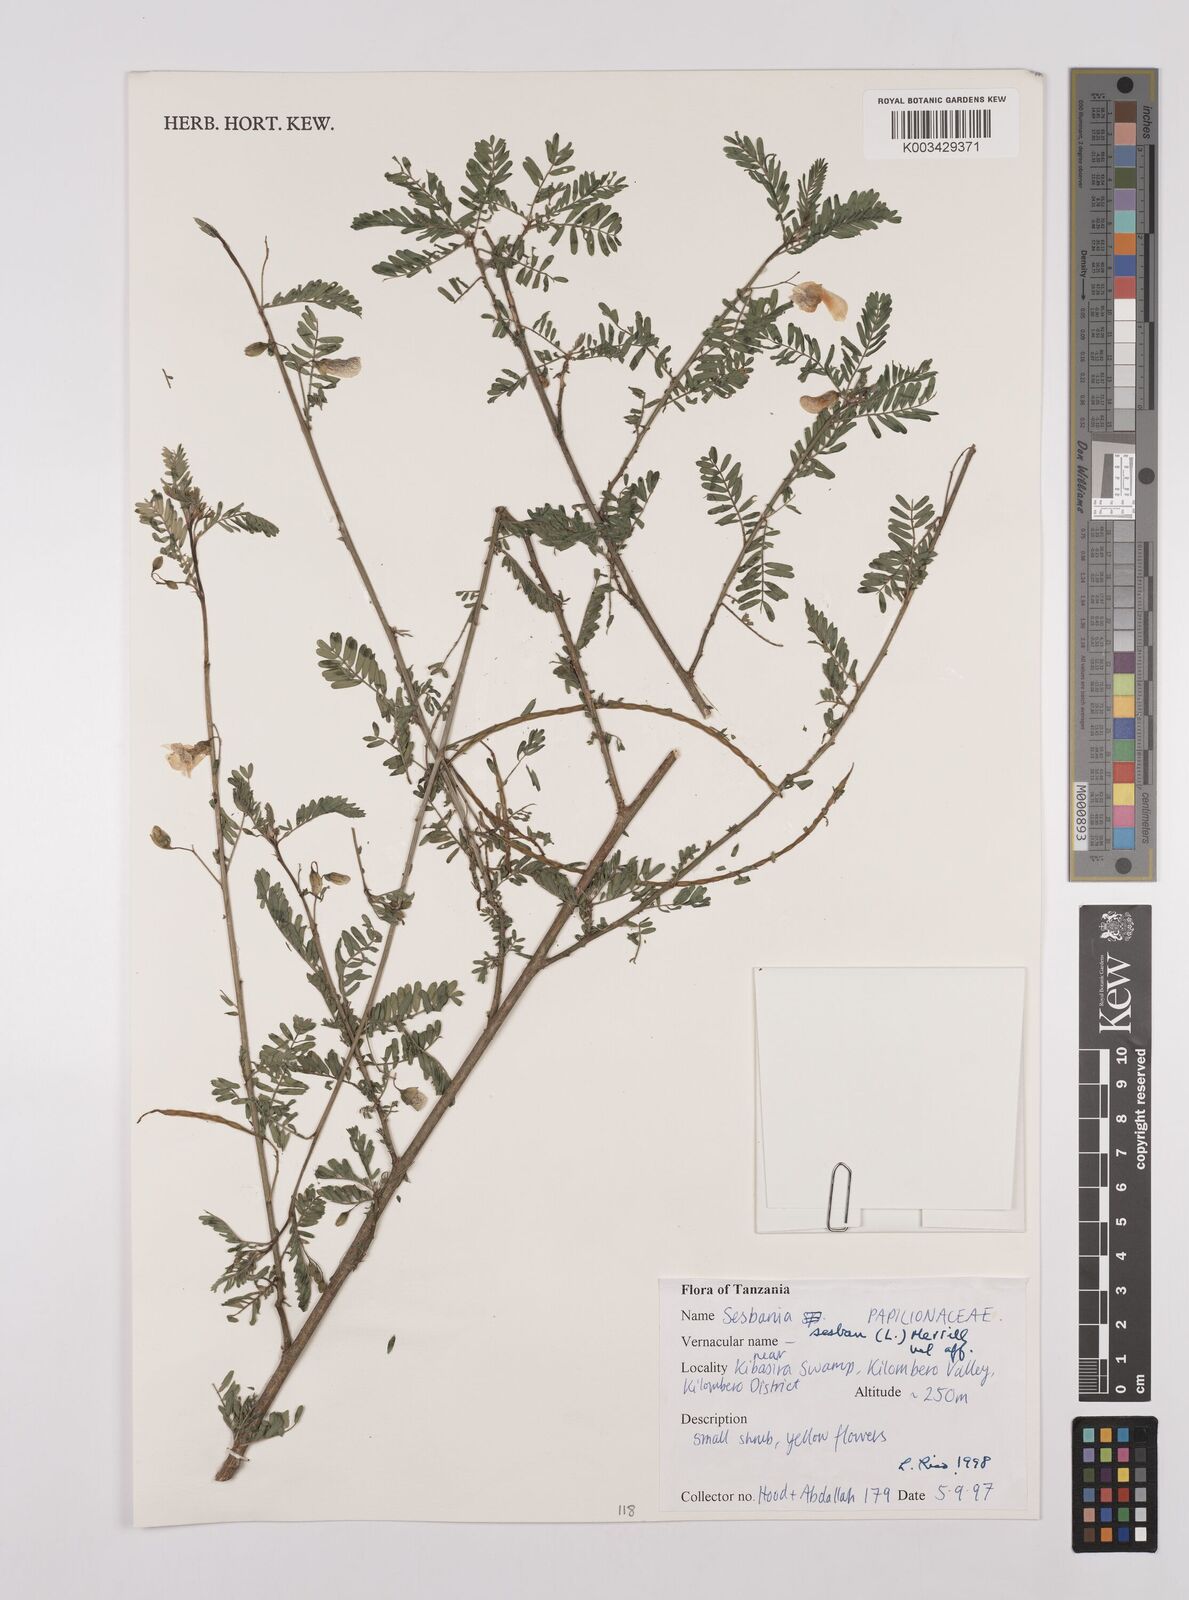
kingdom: Plantae
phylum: Tracheophyta
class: Magnoliopsida
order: Fabales
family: Fabaceae
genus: Sesbania
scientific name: Sesbania sesban
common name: Egyptian sesban
